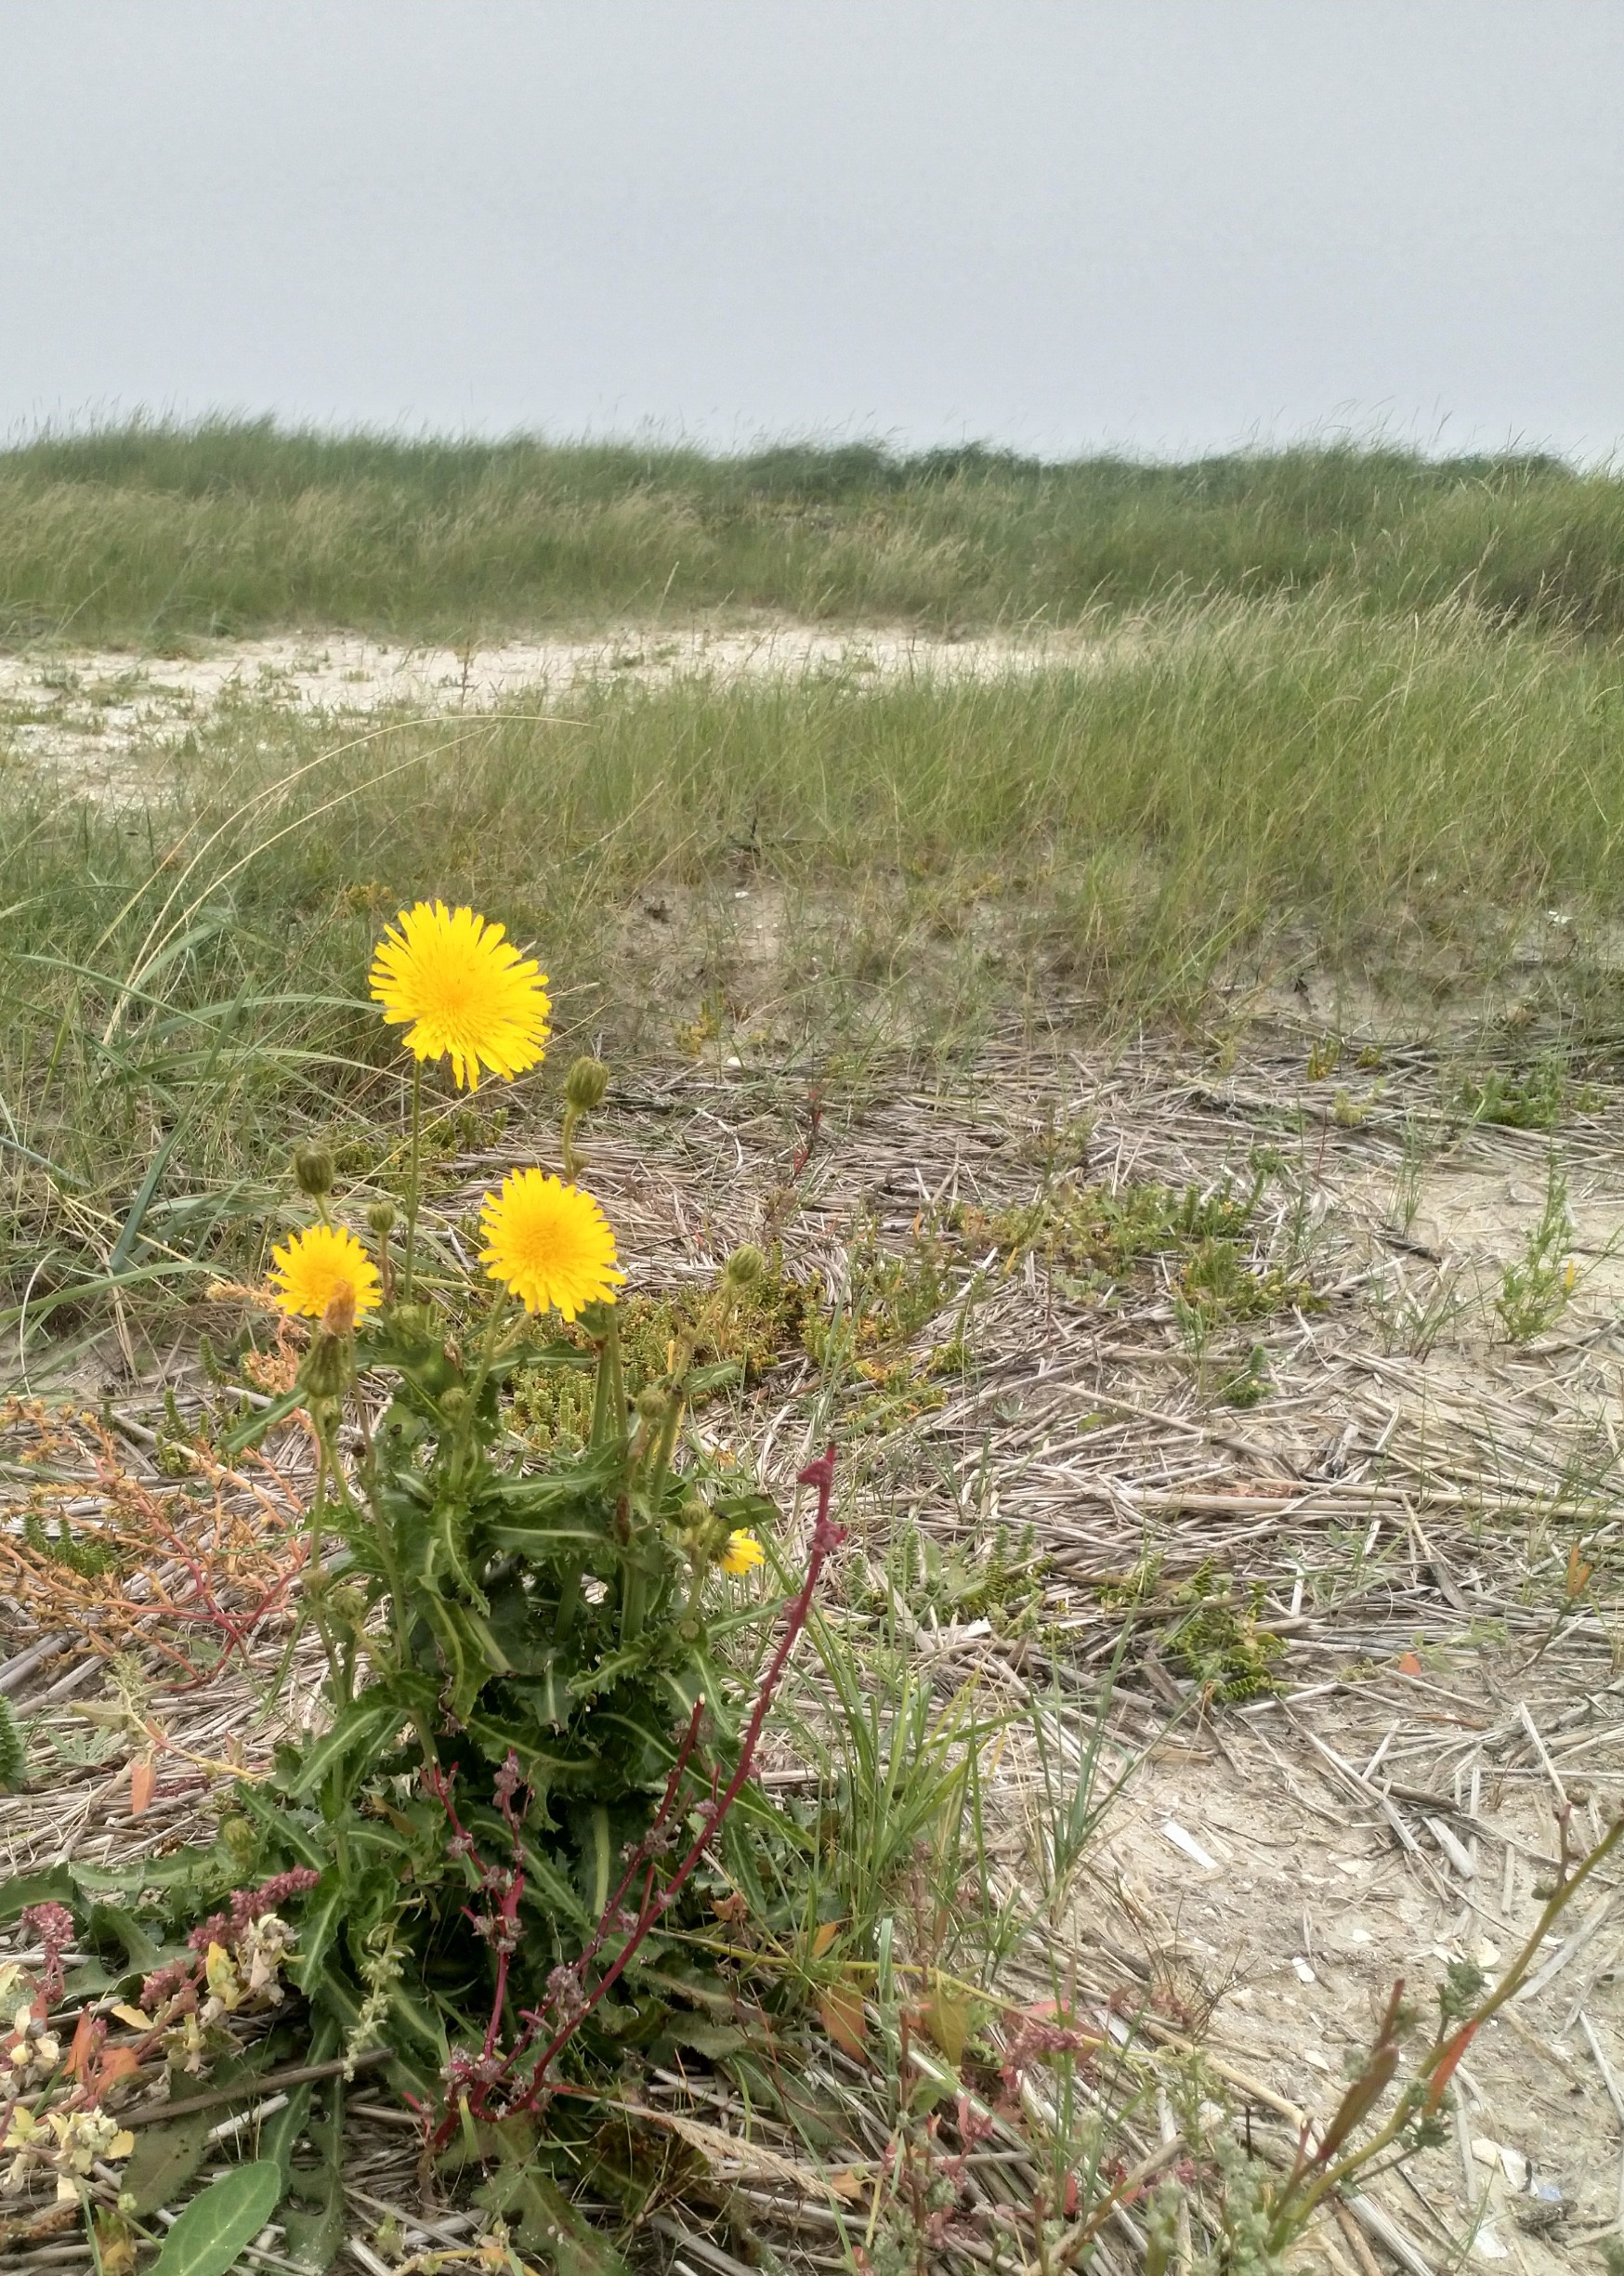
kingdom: Plantae
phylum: Tracheophyta
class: Magnoliopsida
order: Asterales
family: Asteraceae
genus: Sonchus
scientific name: Sonchus arvensis
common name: Ager-svinemælk
